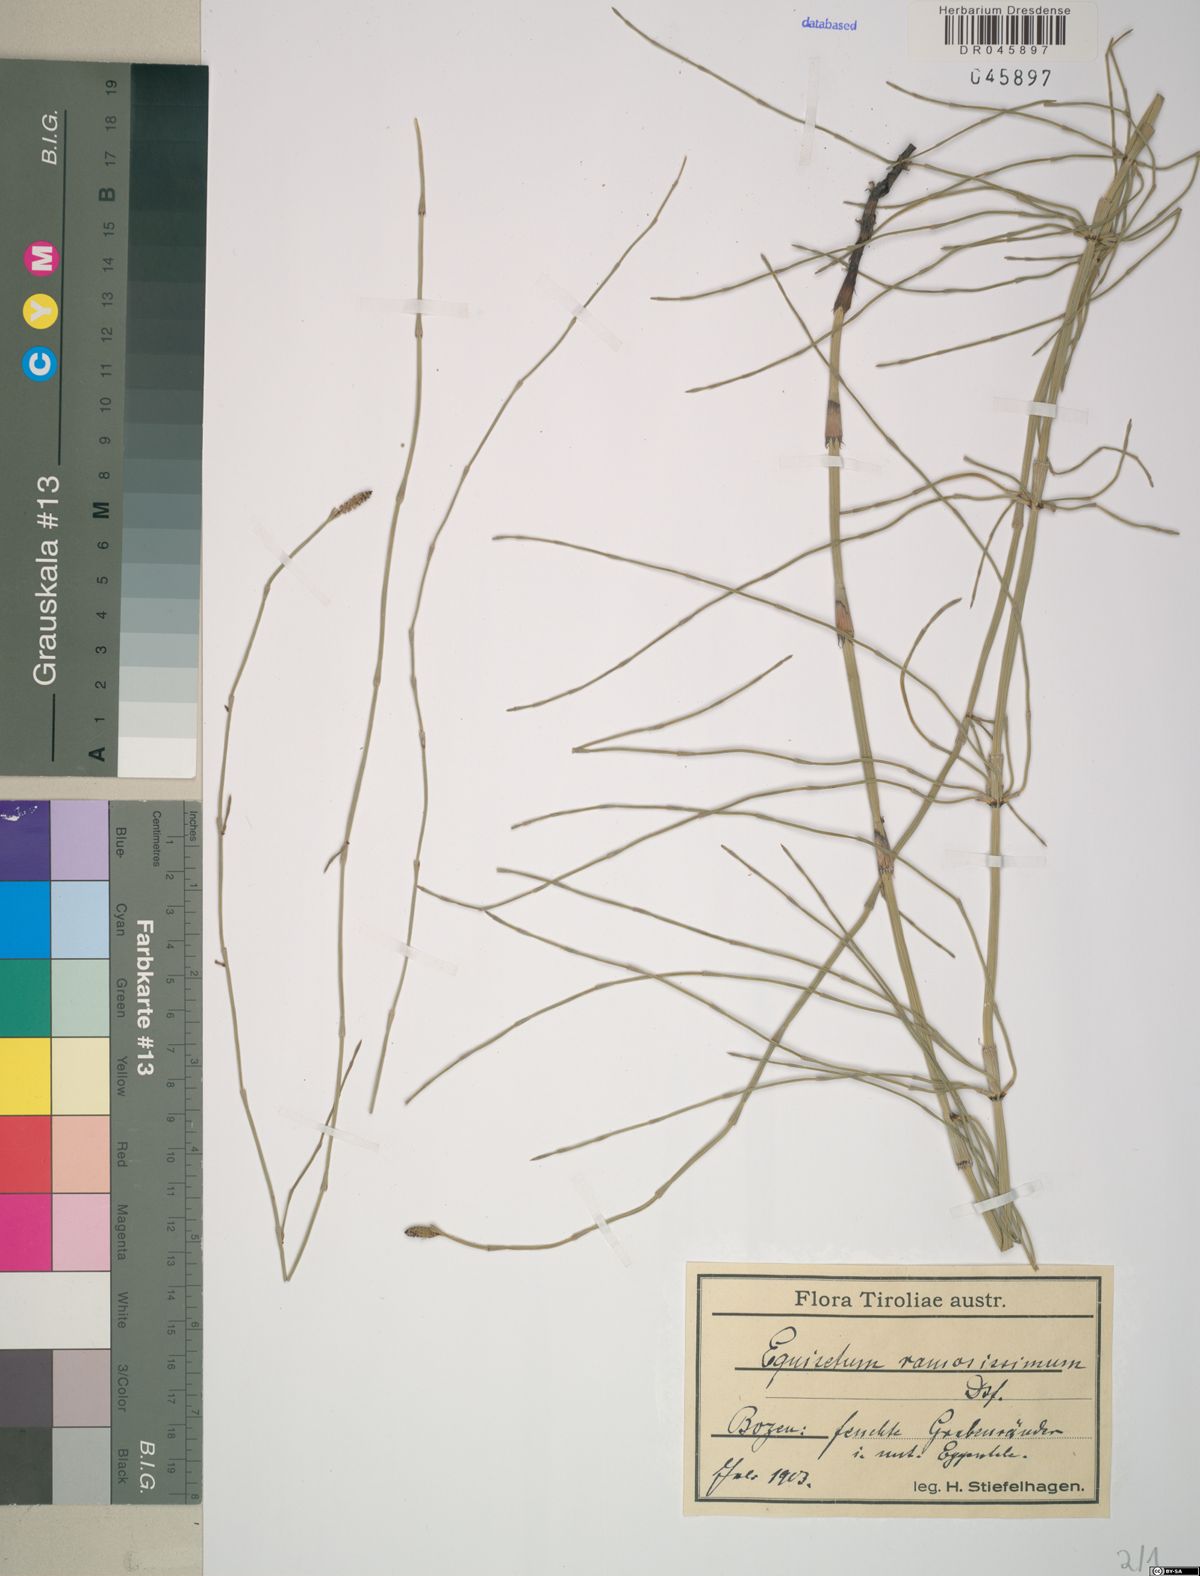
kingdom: Plantae
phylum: Tracheophyta
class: Polypodiopsida
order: Equisetales
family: Equisetaceae
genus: Equisetum
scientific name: Equisetum ramosissimum
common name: Branched horsetail
